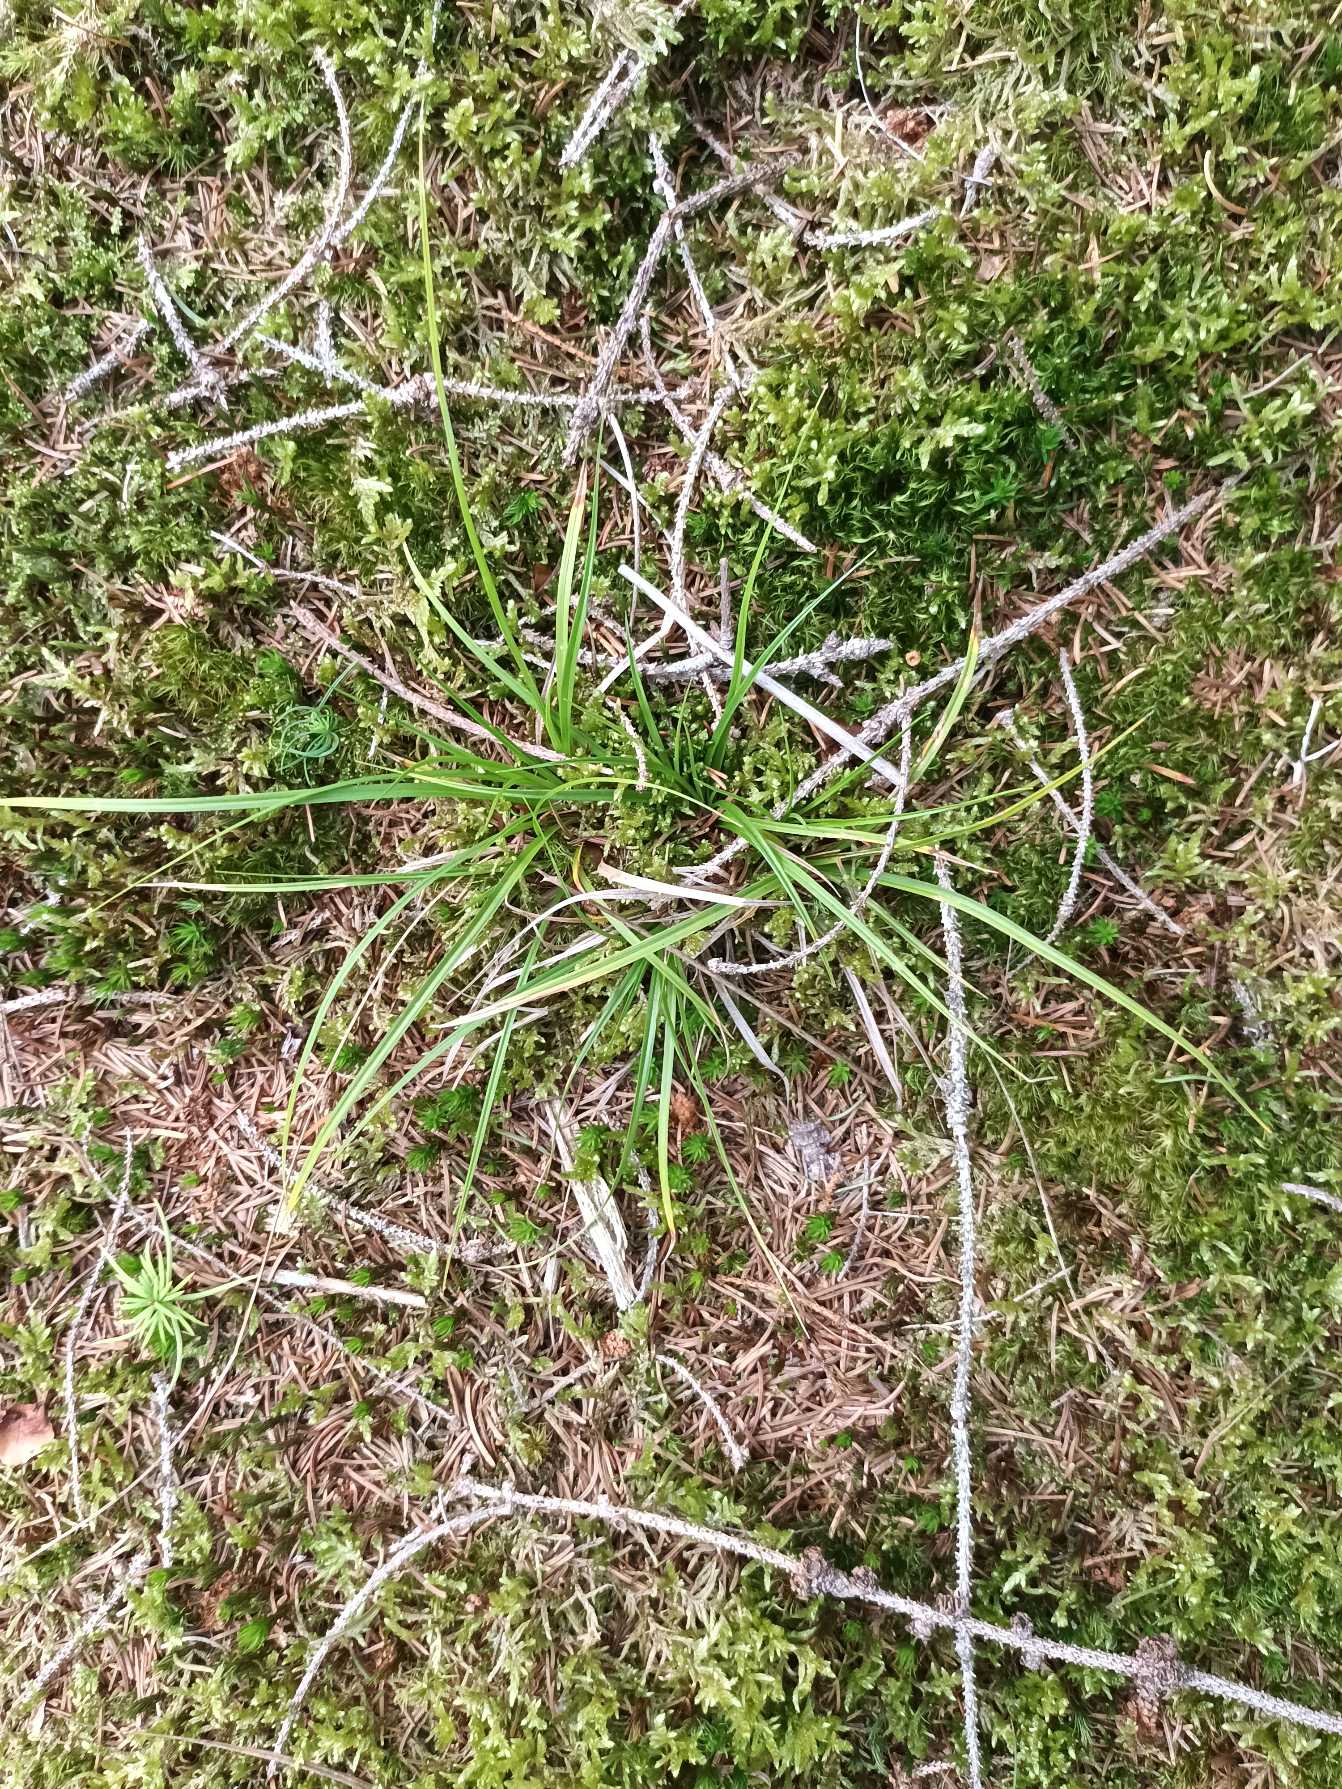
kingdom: Plantae
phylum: Tracheophyta
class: Liliopsida
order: Poales
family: Cyperaceae
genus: Carex
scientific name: Carex pilulifera
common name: Pille-star
